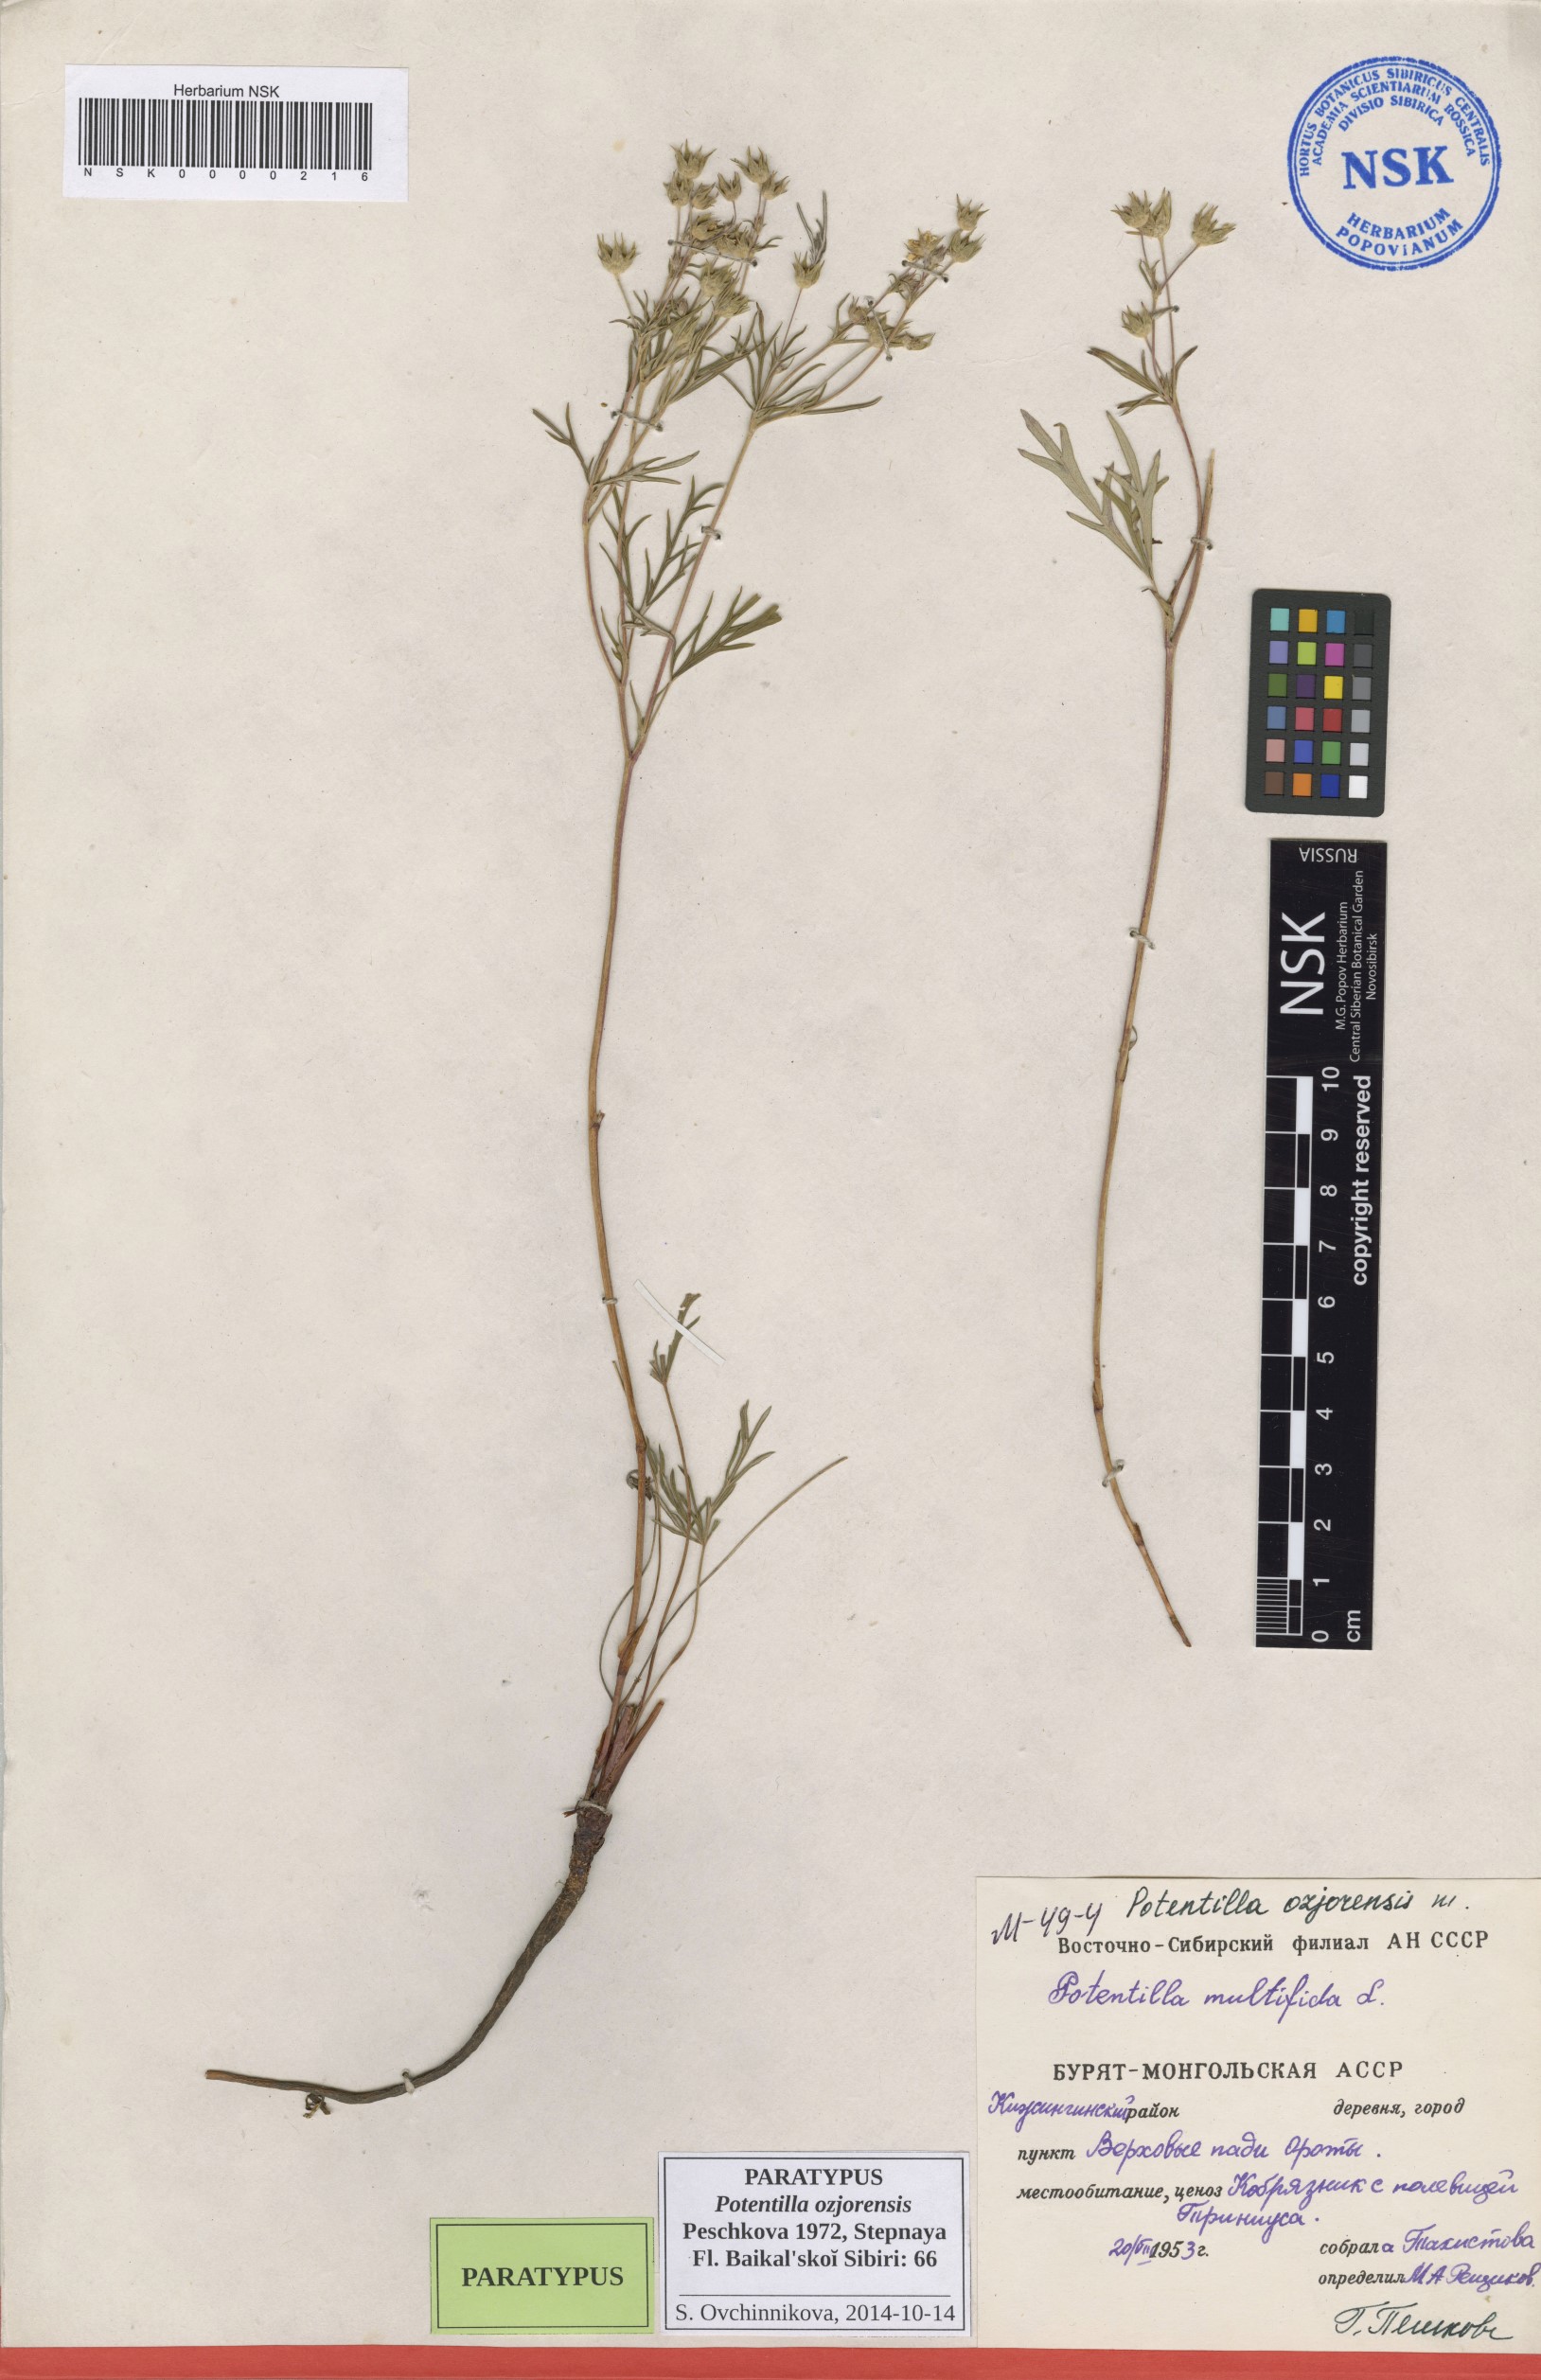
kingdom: Plantae
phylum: Tracheophyta
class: Magnoliopsida
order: Rosales
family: Rosaceae
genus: Potentilla
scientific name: Potentilla ozjorensis
